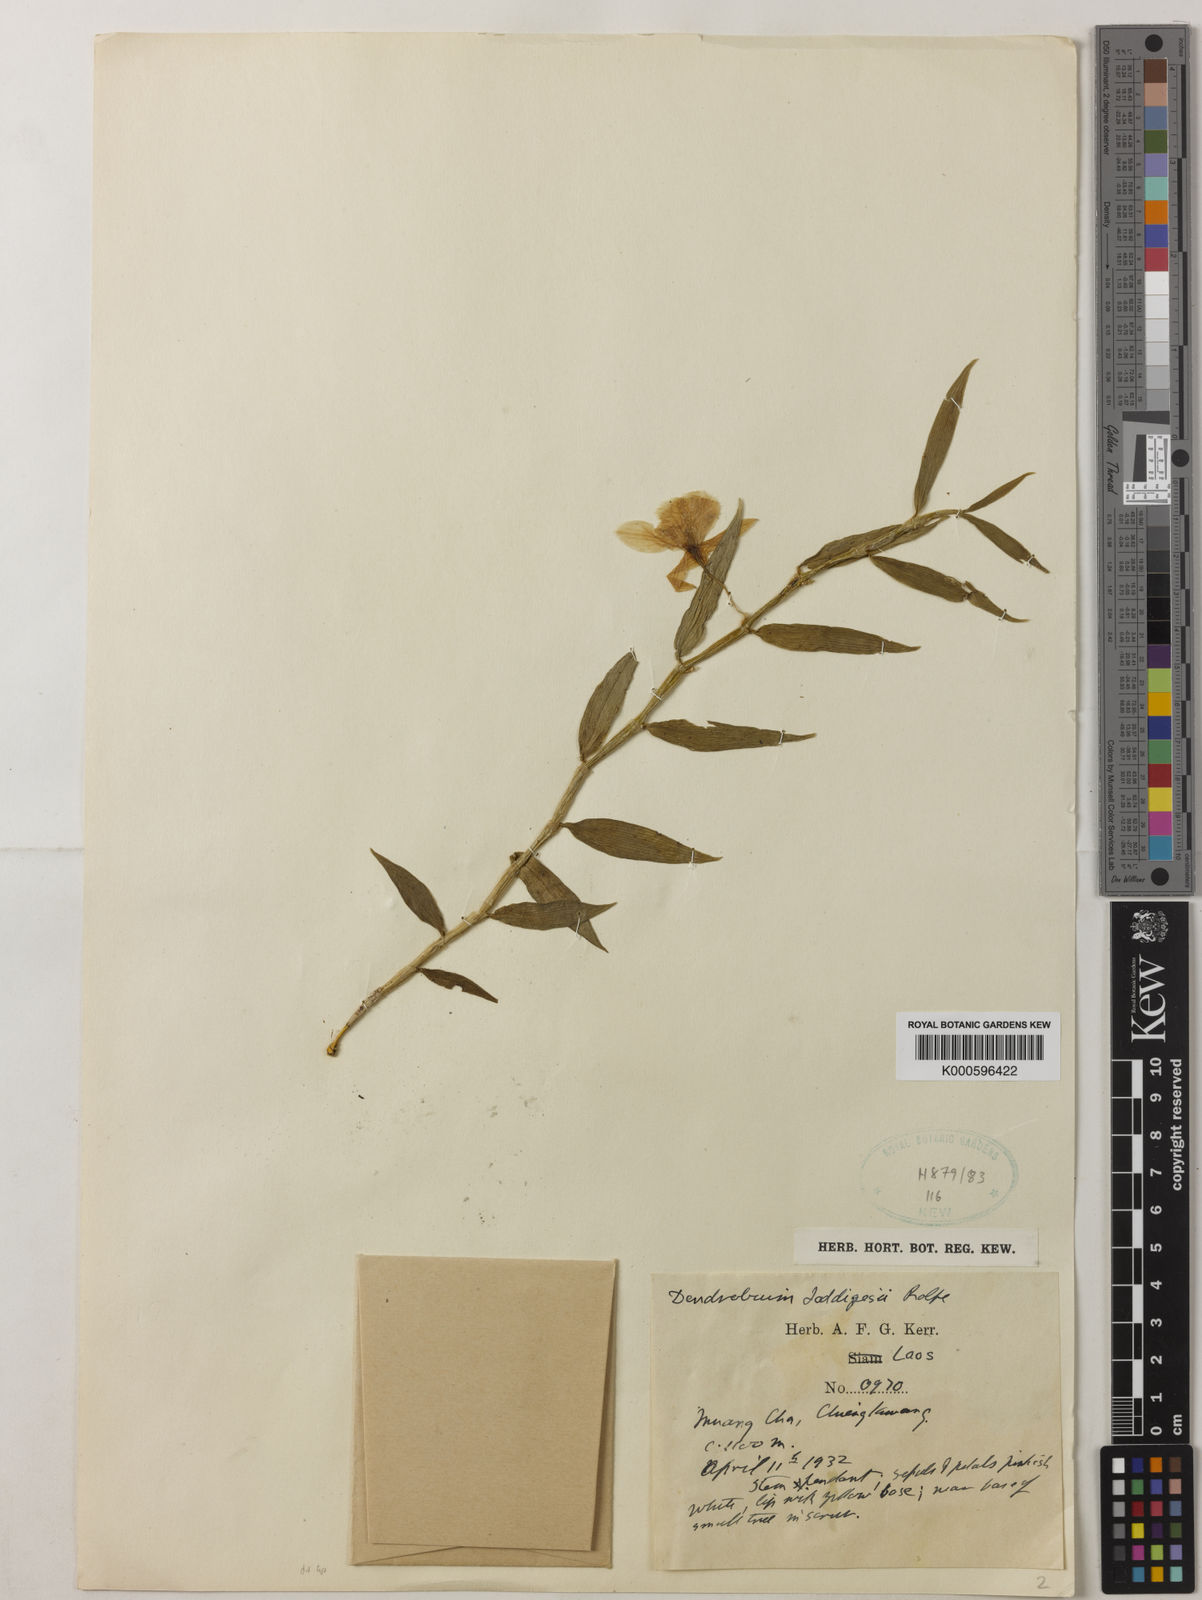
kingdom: Plantae
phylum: Tracheophyta
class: Liliopsida
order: Asparagales
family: Orchidaceae
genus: Dendrobium
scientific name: Dendrobium loddigesii
